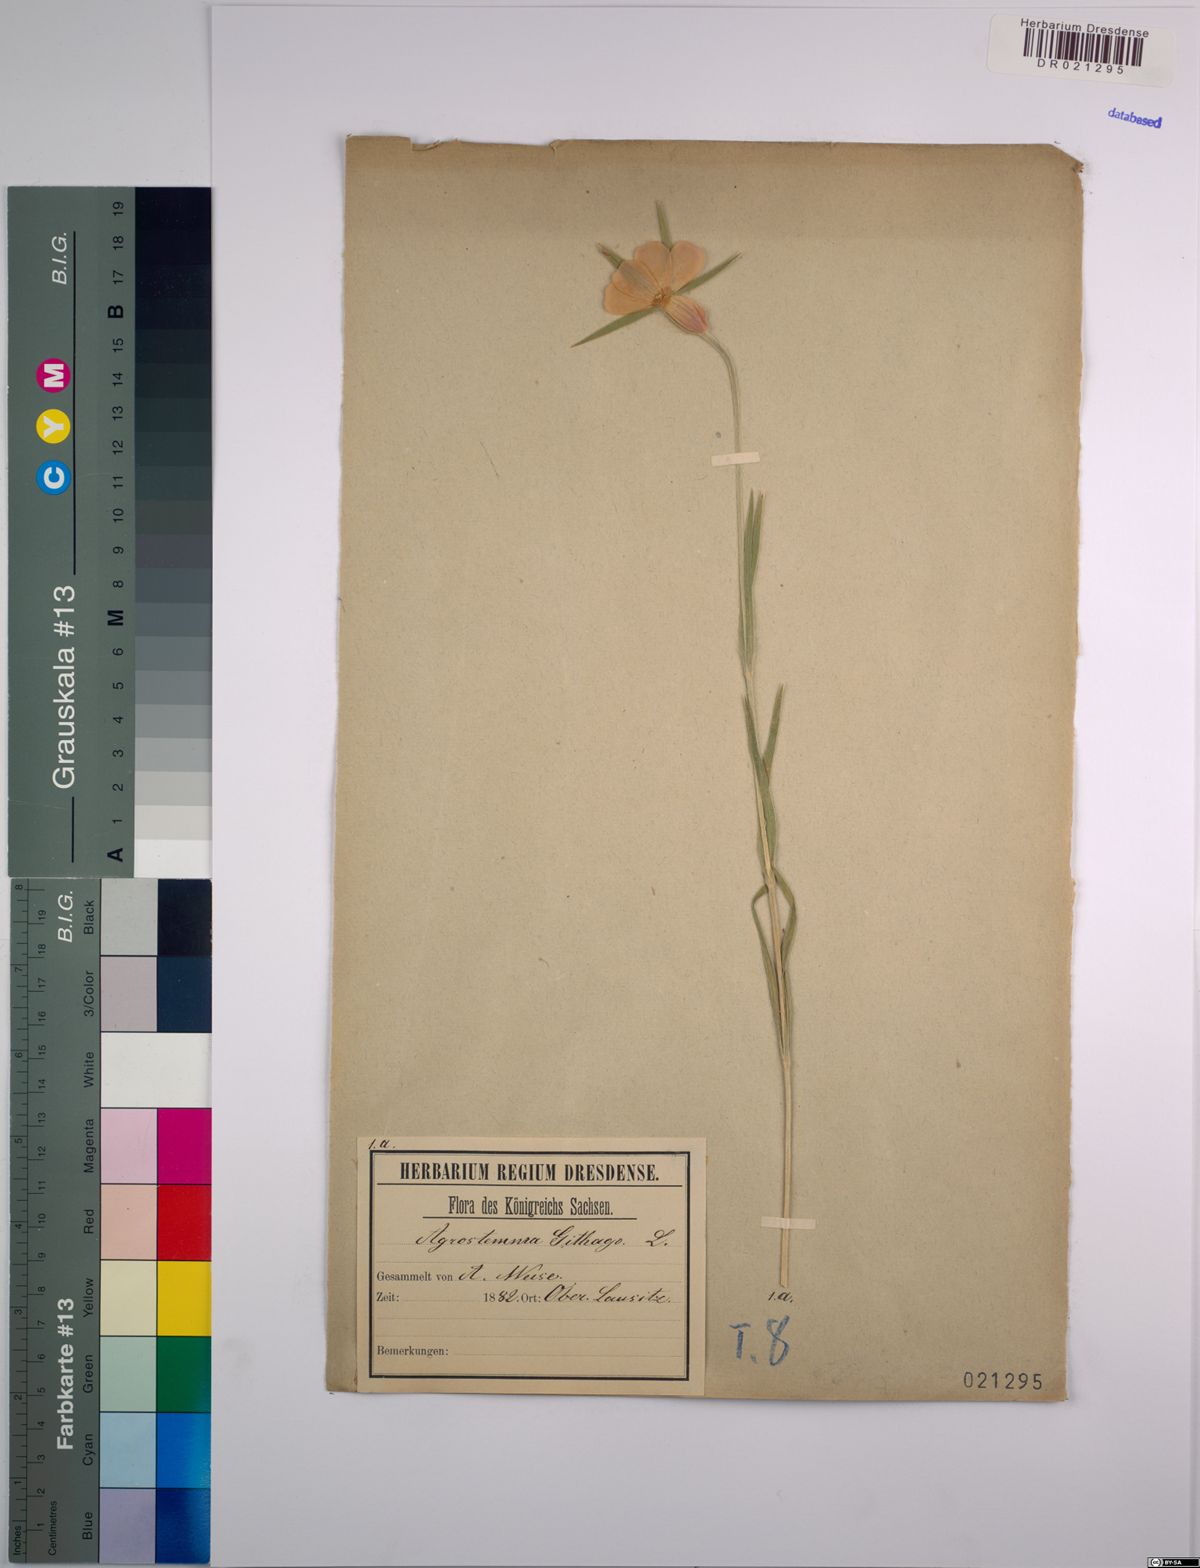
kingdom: Plantae
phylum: Tracheophyta
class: Magnoliopsida
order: Caryophyllales
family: Caryophyllaceae
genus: Agrostemma
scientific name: Agrostemma githago
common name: Common corncockle
